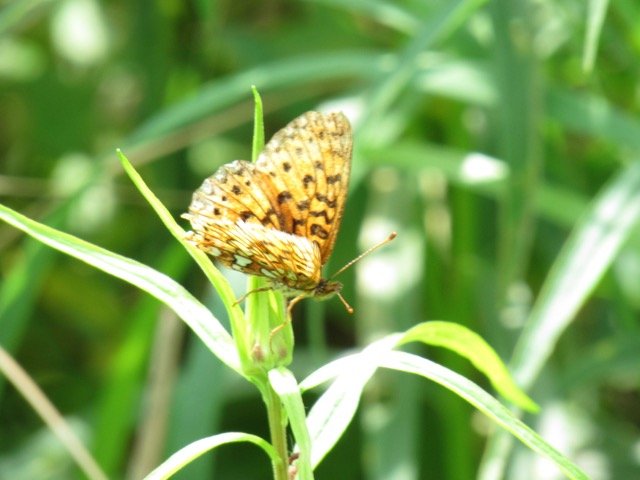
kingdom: Animalia
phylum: Arthropoda
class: Insecta
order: Lepidoptera
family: Nymphalidae
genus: Boloria
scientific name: Boloria selene
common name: Silver-bordered Fritillary
